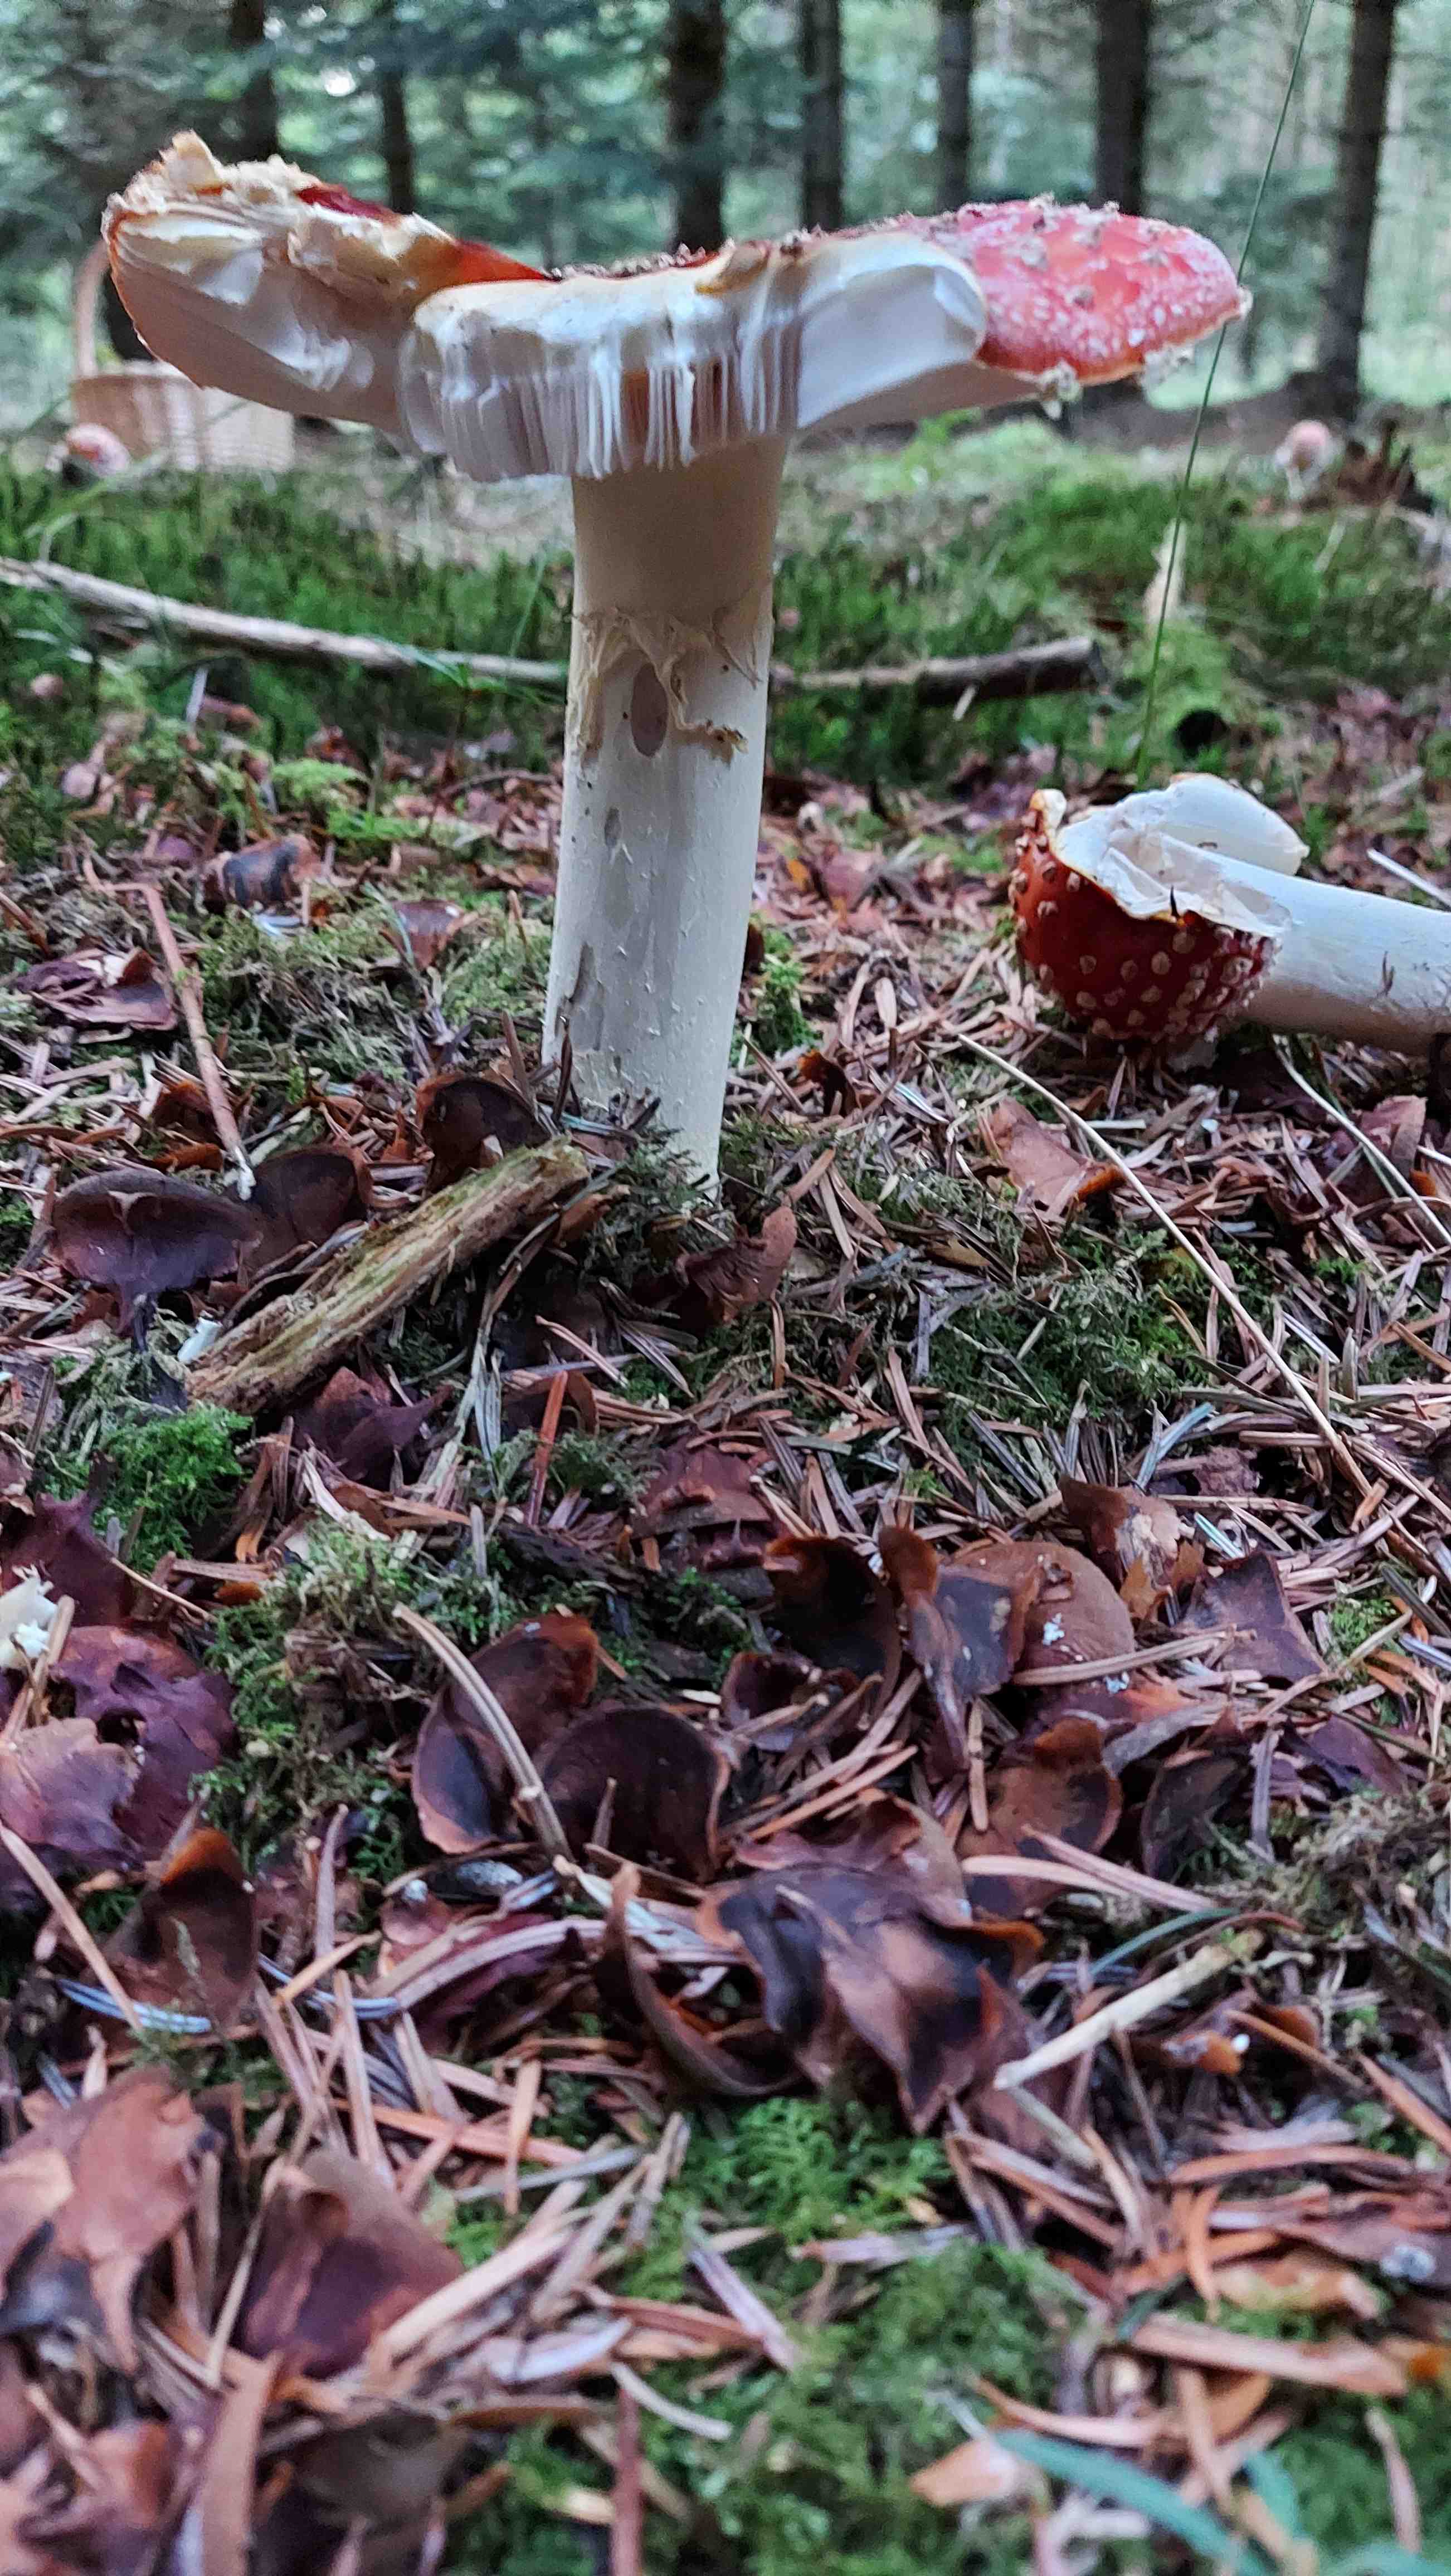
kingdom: Fungi
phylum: Basidiomycota
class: Agaricomycetes
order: Agaricales
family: Amanitaceae
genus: Amanita
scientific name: Amanita muscaria
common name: rød fluesvamp
